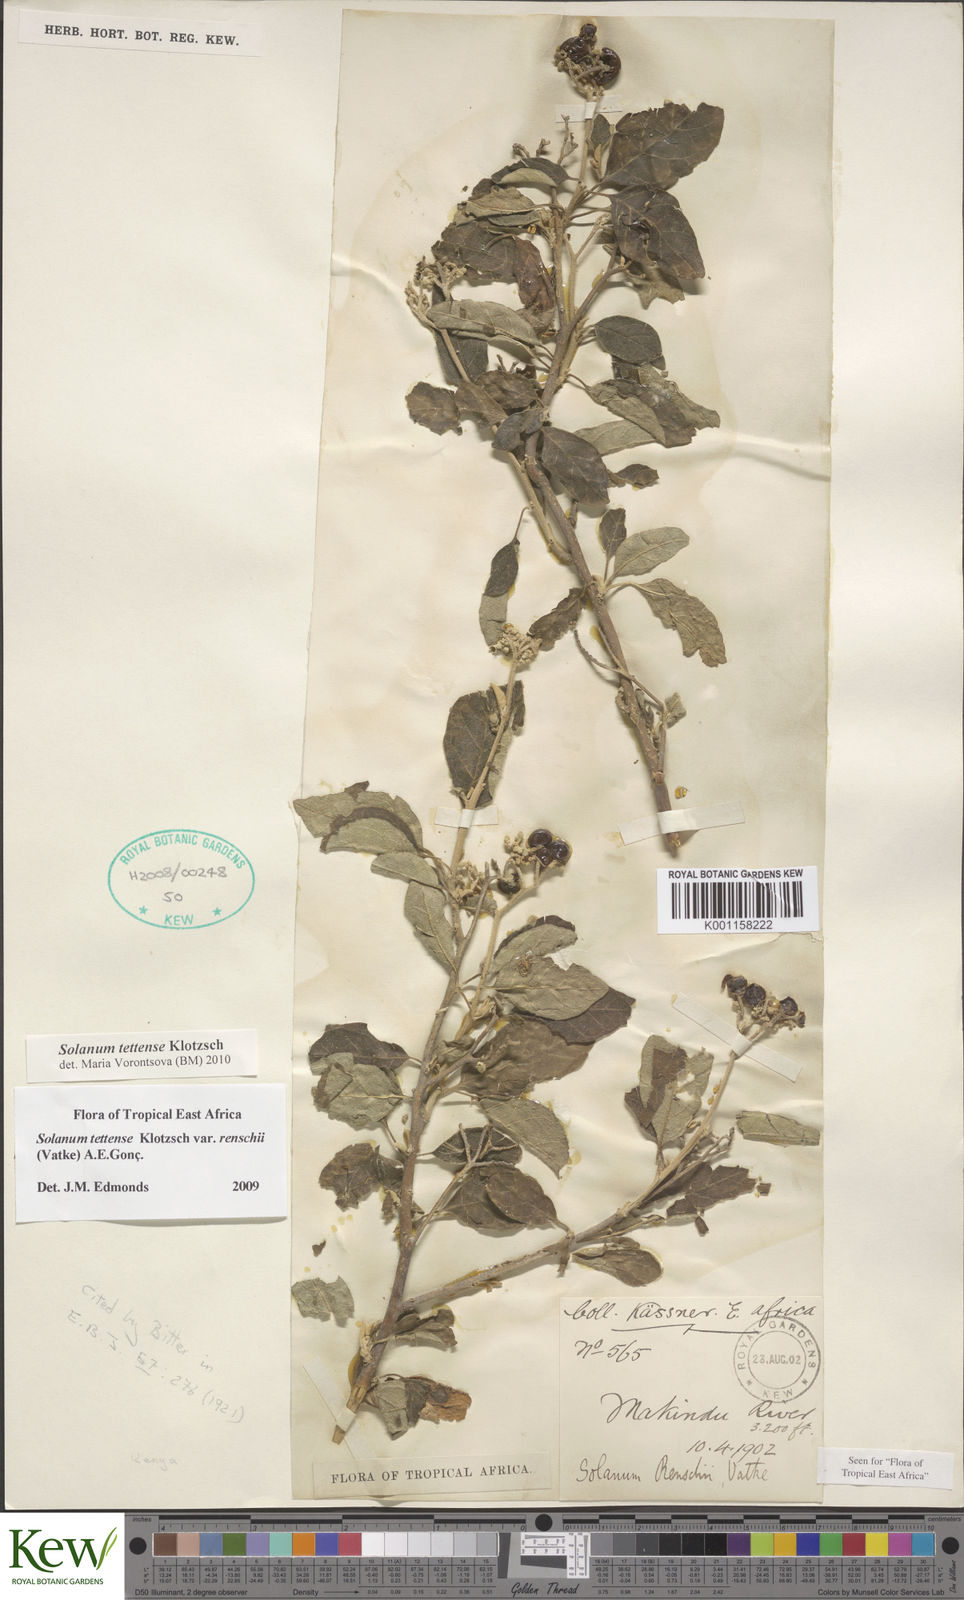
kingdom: Plantae
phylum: Tracheophyta
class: Magnoliopsida
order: Solanales
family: Solanaceae
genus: Solanum
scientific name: Solanum tettense
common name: Mozambique bitter apple
